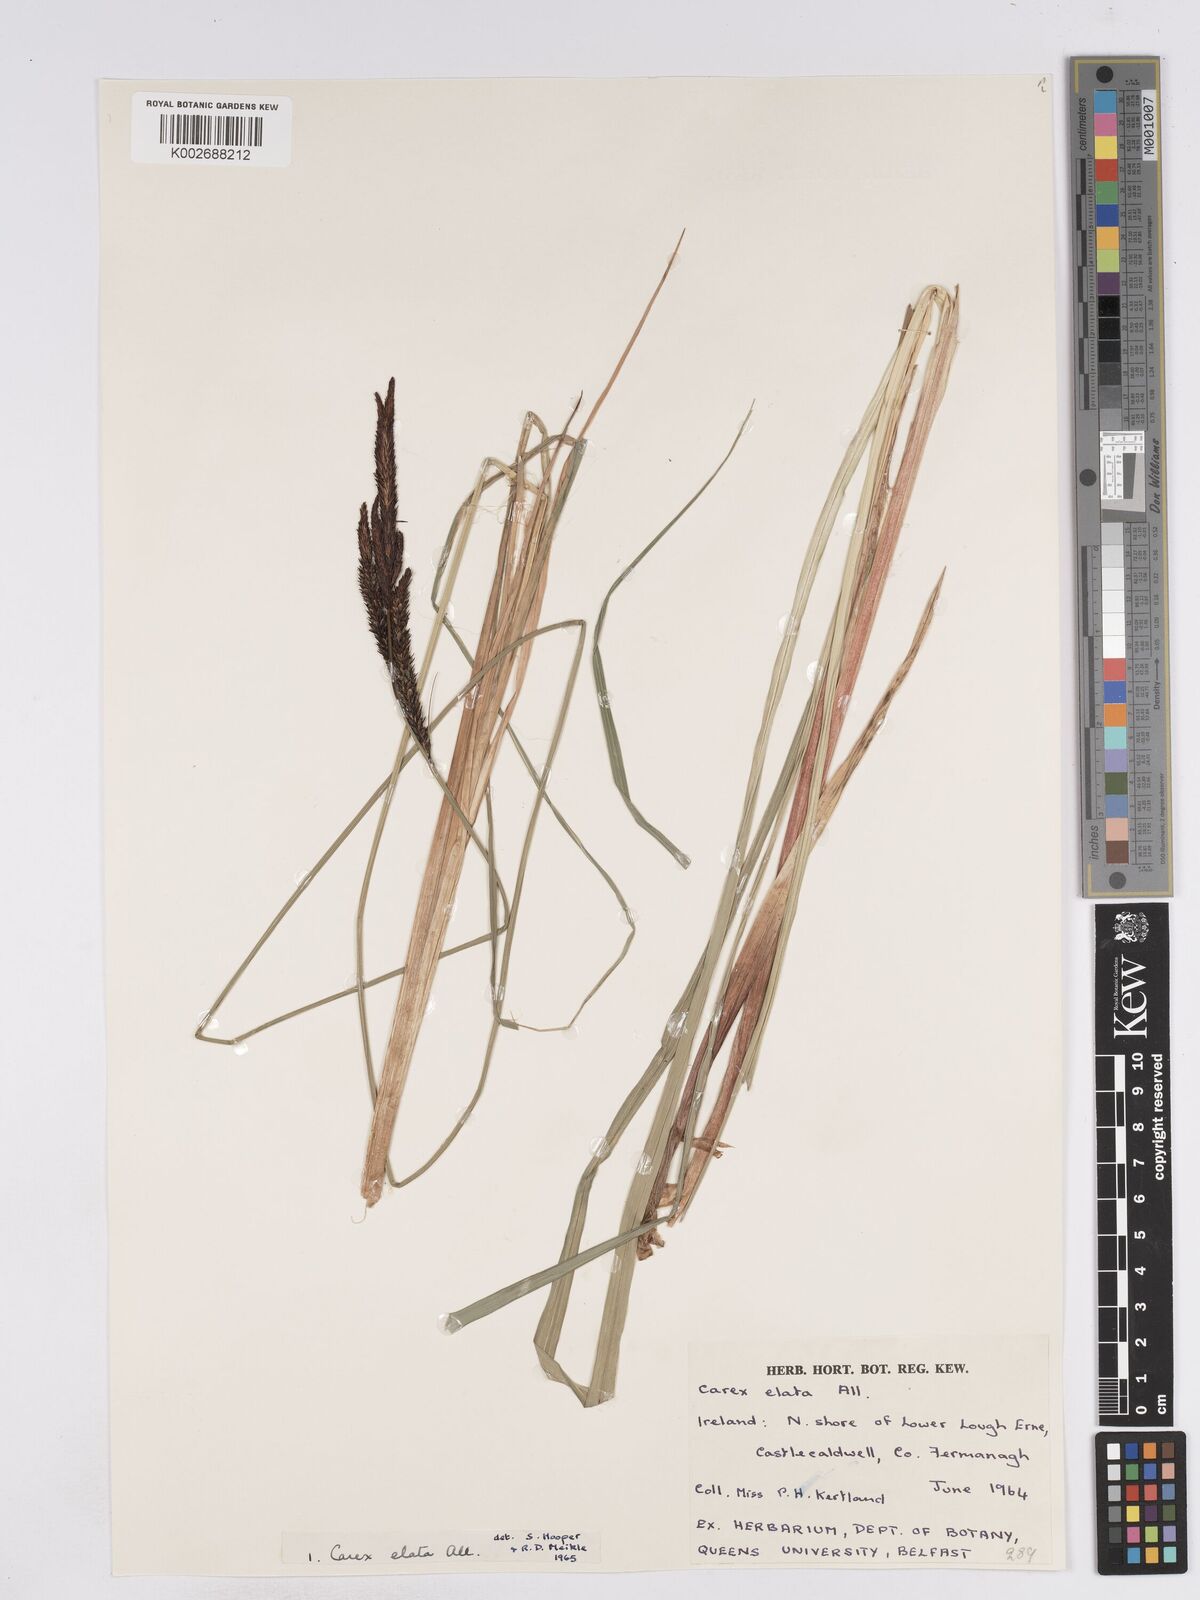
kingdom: Plantae
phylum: Tracheophyta
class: Liliopsida
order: Poales
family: Cyperaceae
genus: Carex
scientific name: Carex elata
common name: Tufted sedge
